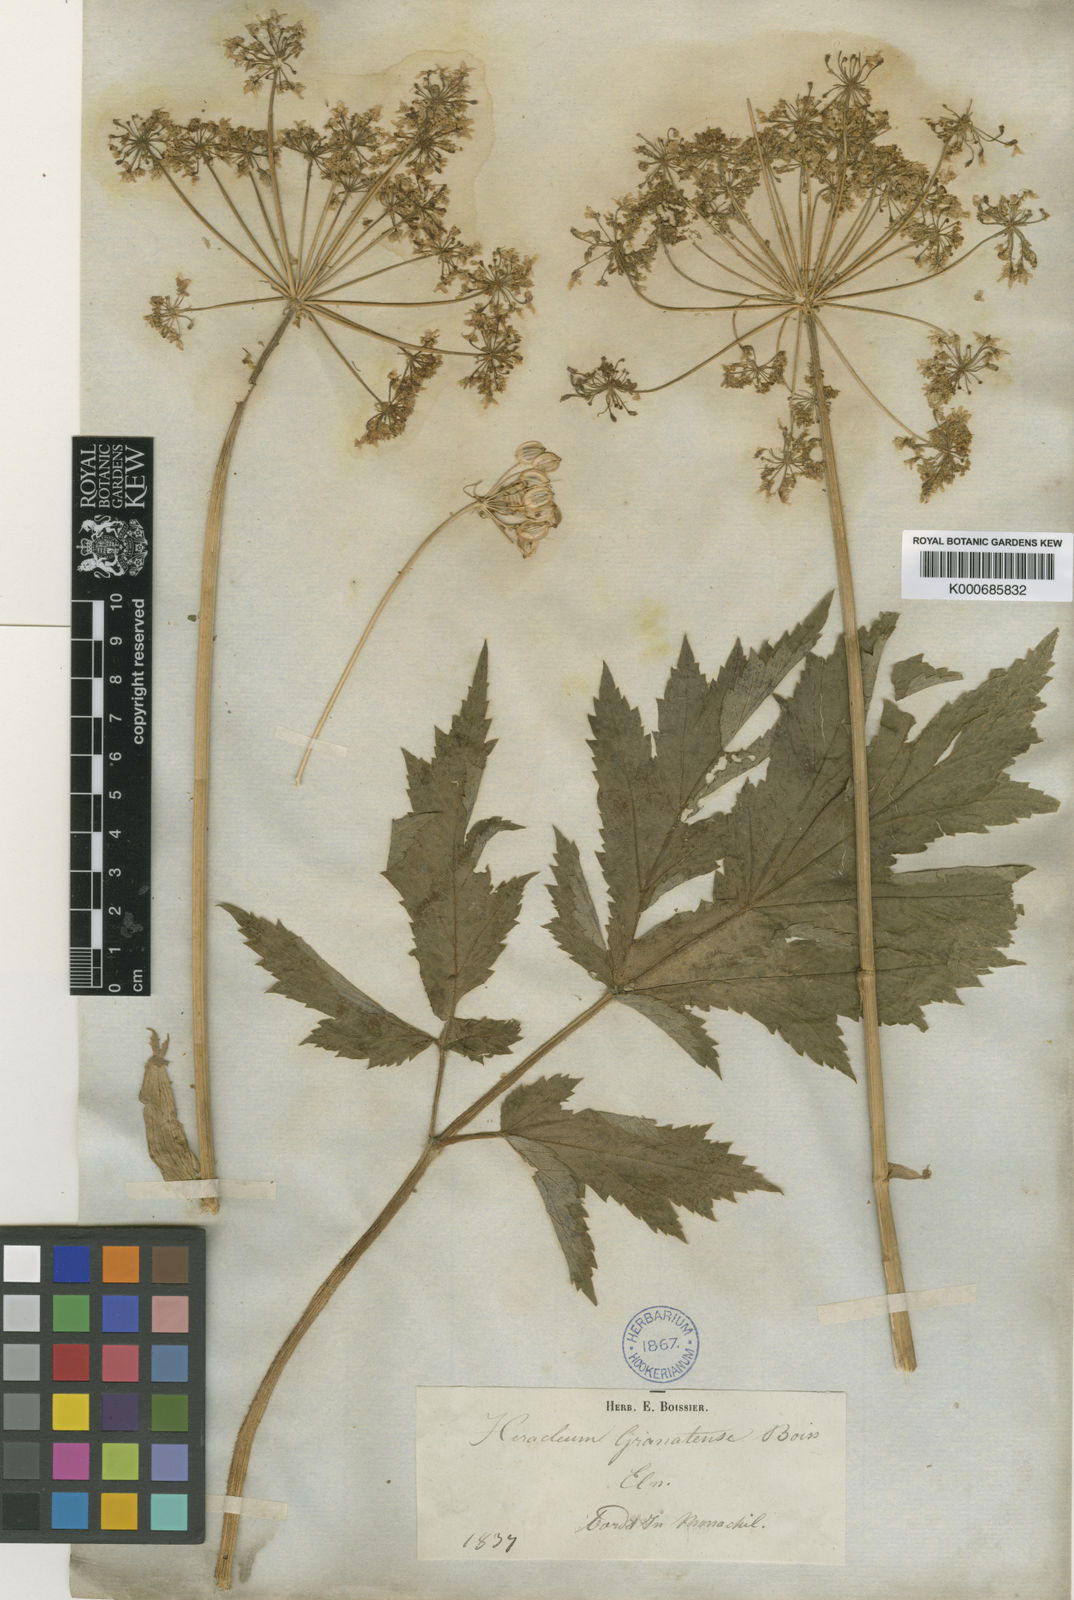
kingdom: Plantae
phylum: Tracheophyta
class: Magnoliopsida
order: Apiales
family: Apiaceae
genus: Heracleum
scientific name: Heracleum sphondylium
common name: Hogweed
